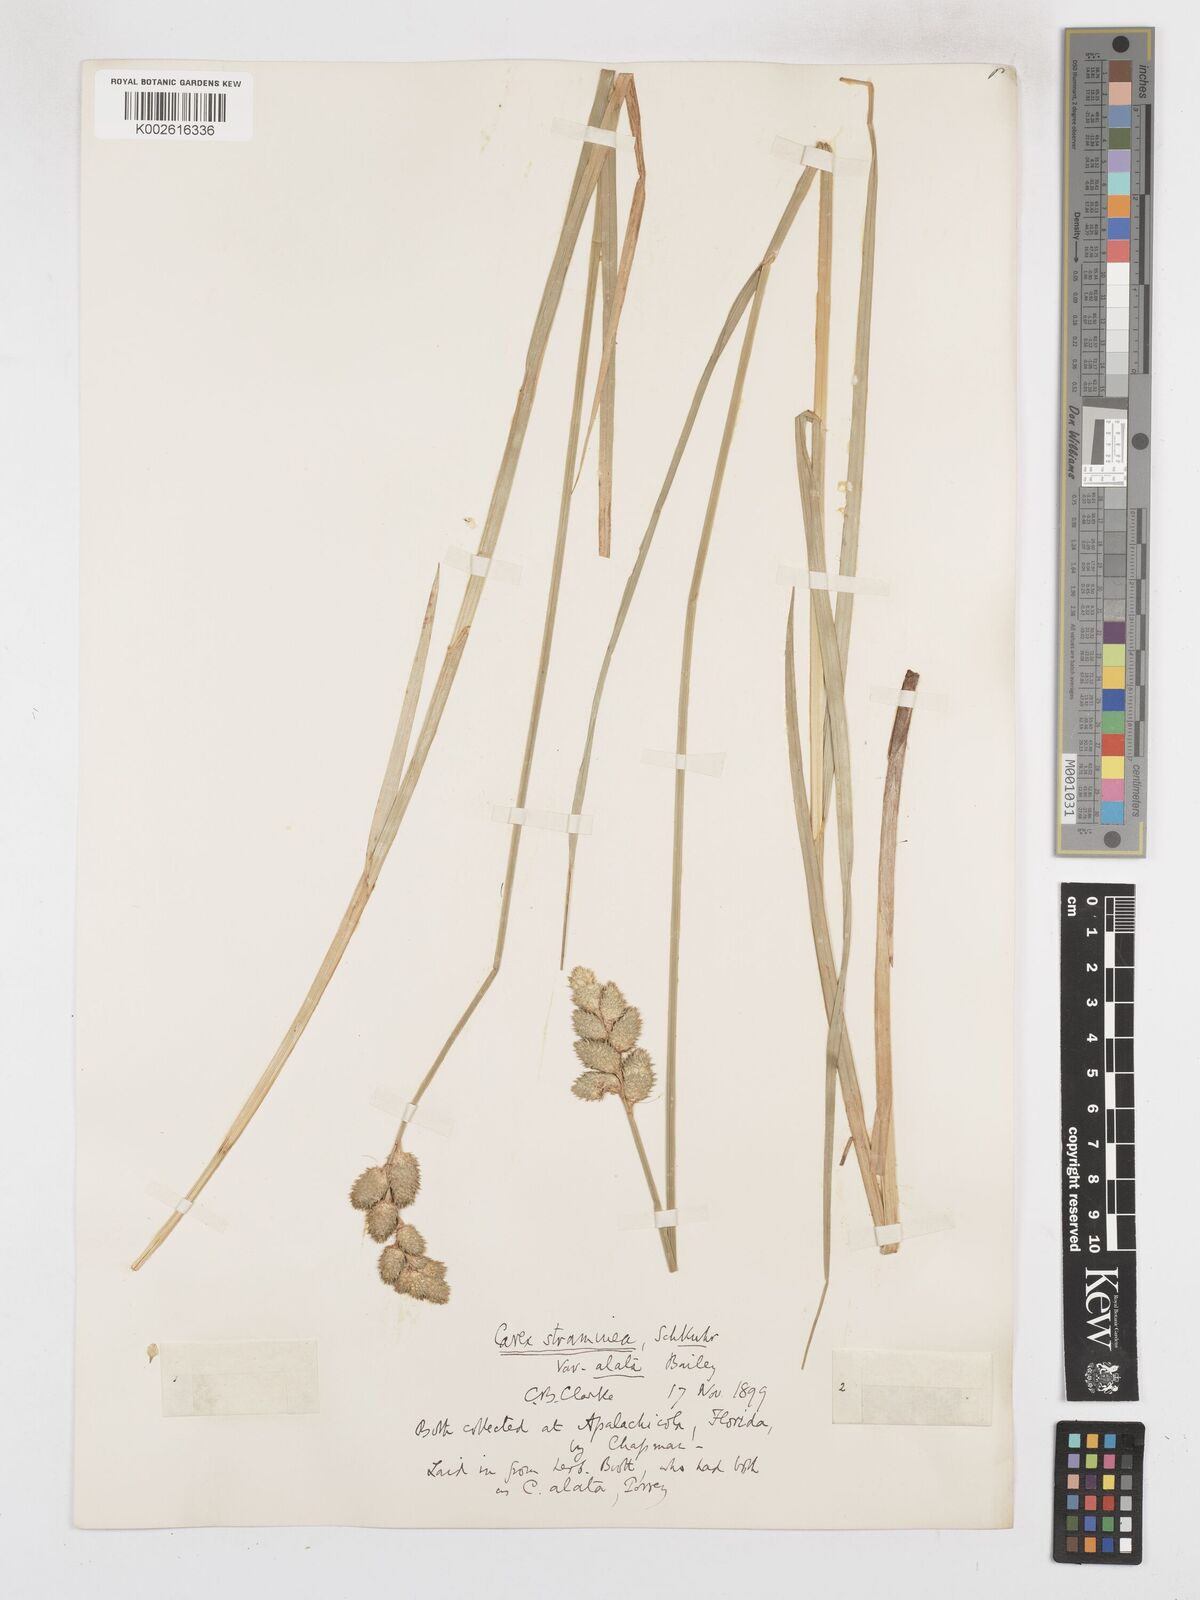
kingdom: Plantae
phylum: Tracheophyta
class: Liliopsida
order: Poales
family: Cyperaceae
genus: Carex
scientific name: Carex alata
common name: Broad-winged sedge
